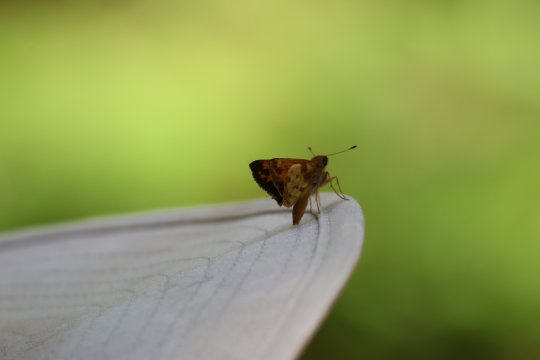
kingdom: Animalia
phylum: Arthropoda
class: Insecta
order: Lepidoptera
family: Hesperiidae
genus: Lon
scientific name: Lon zabulon
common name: Zabulon Skipper
